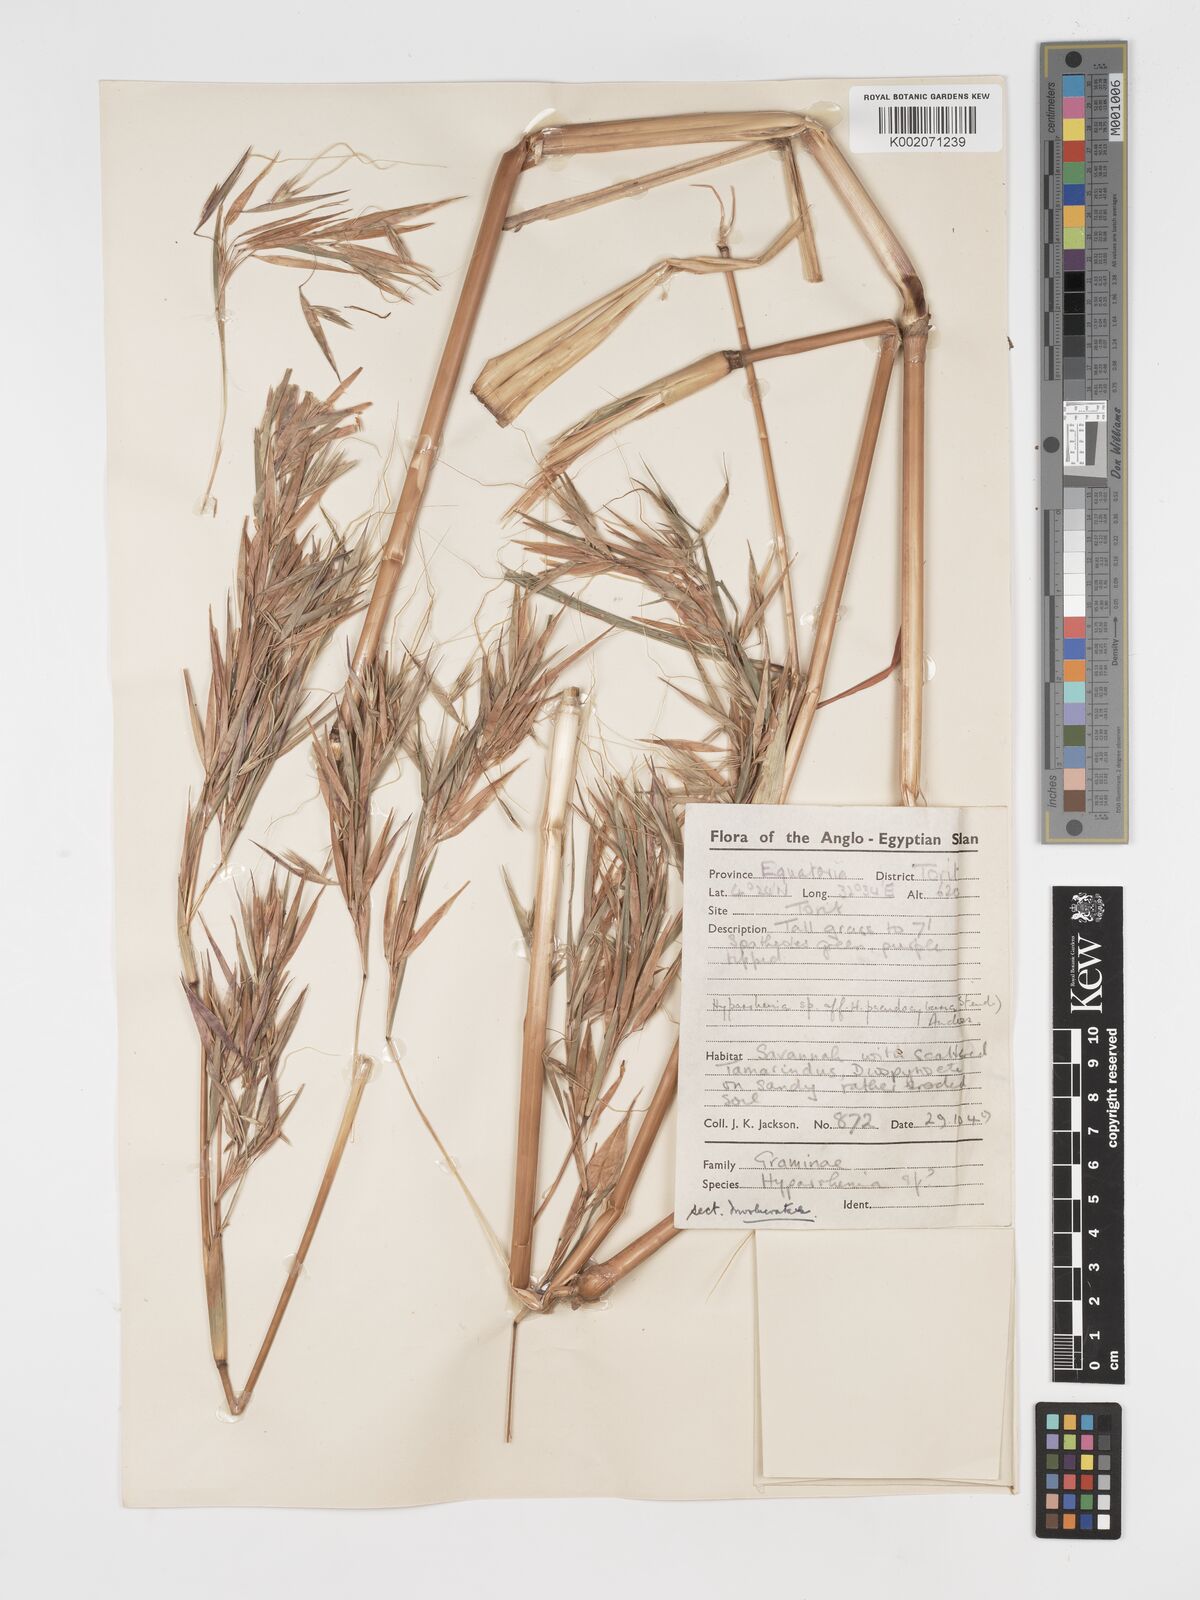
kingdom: Plantae
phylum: Tracheophyta
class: Liliopsida
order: Poales
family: Poaceae
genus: Hyparrhenia
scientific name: Hyparrhenia madaropoda
